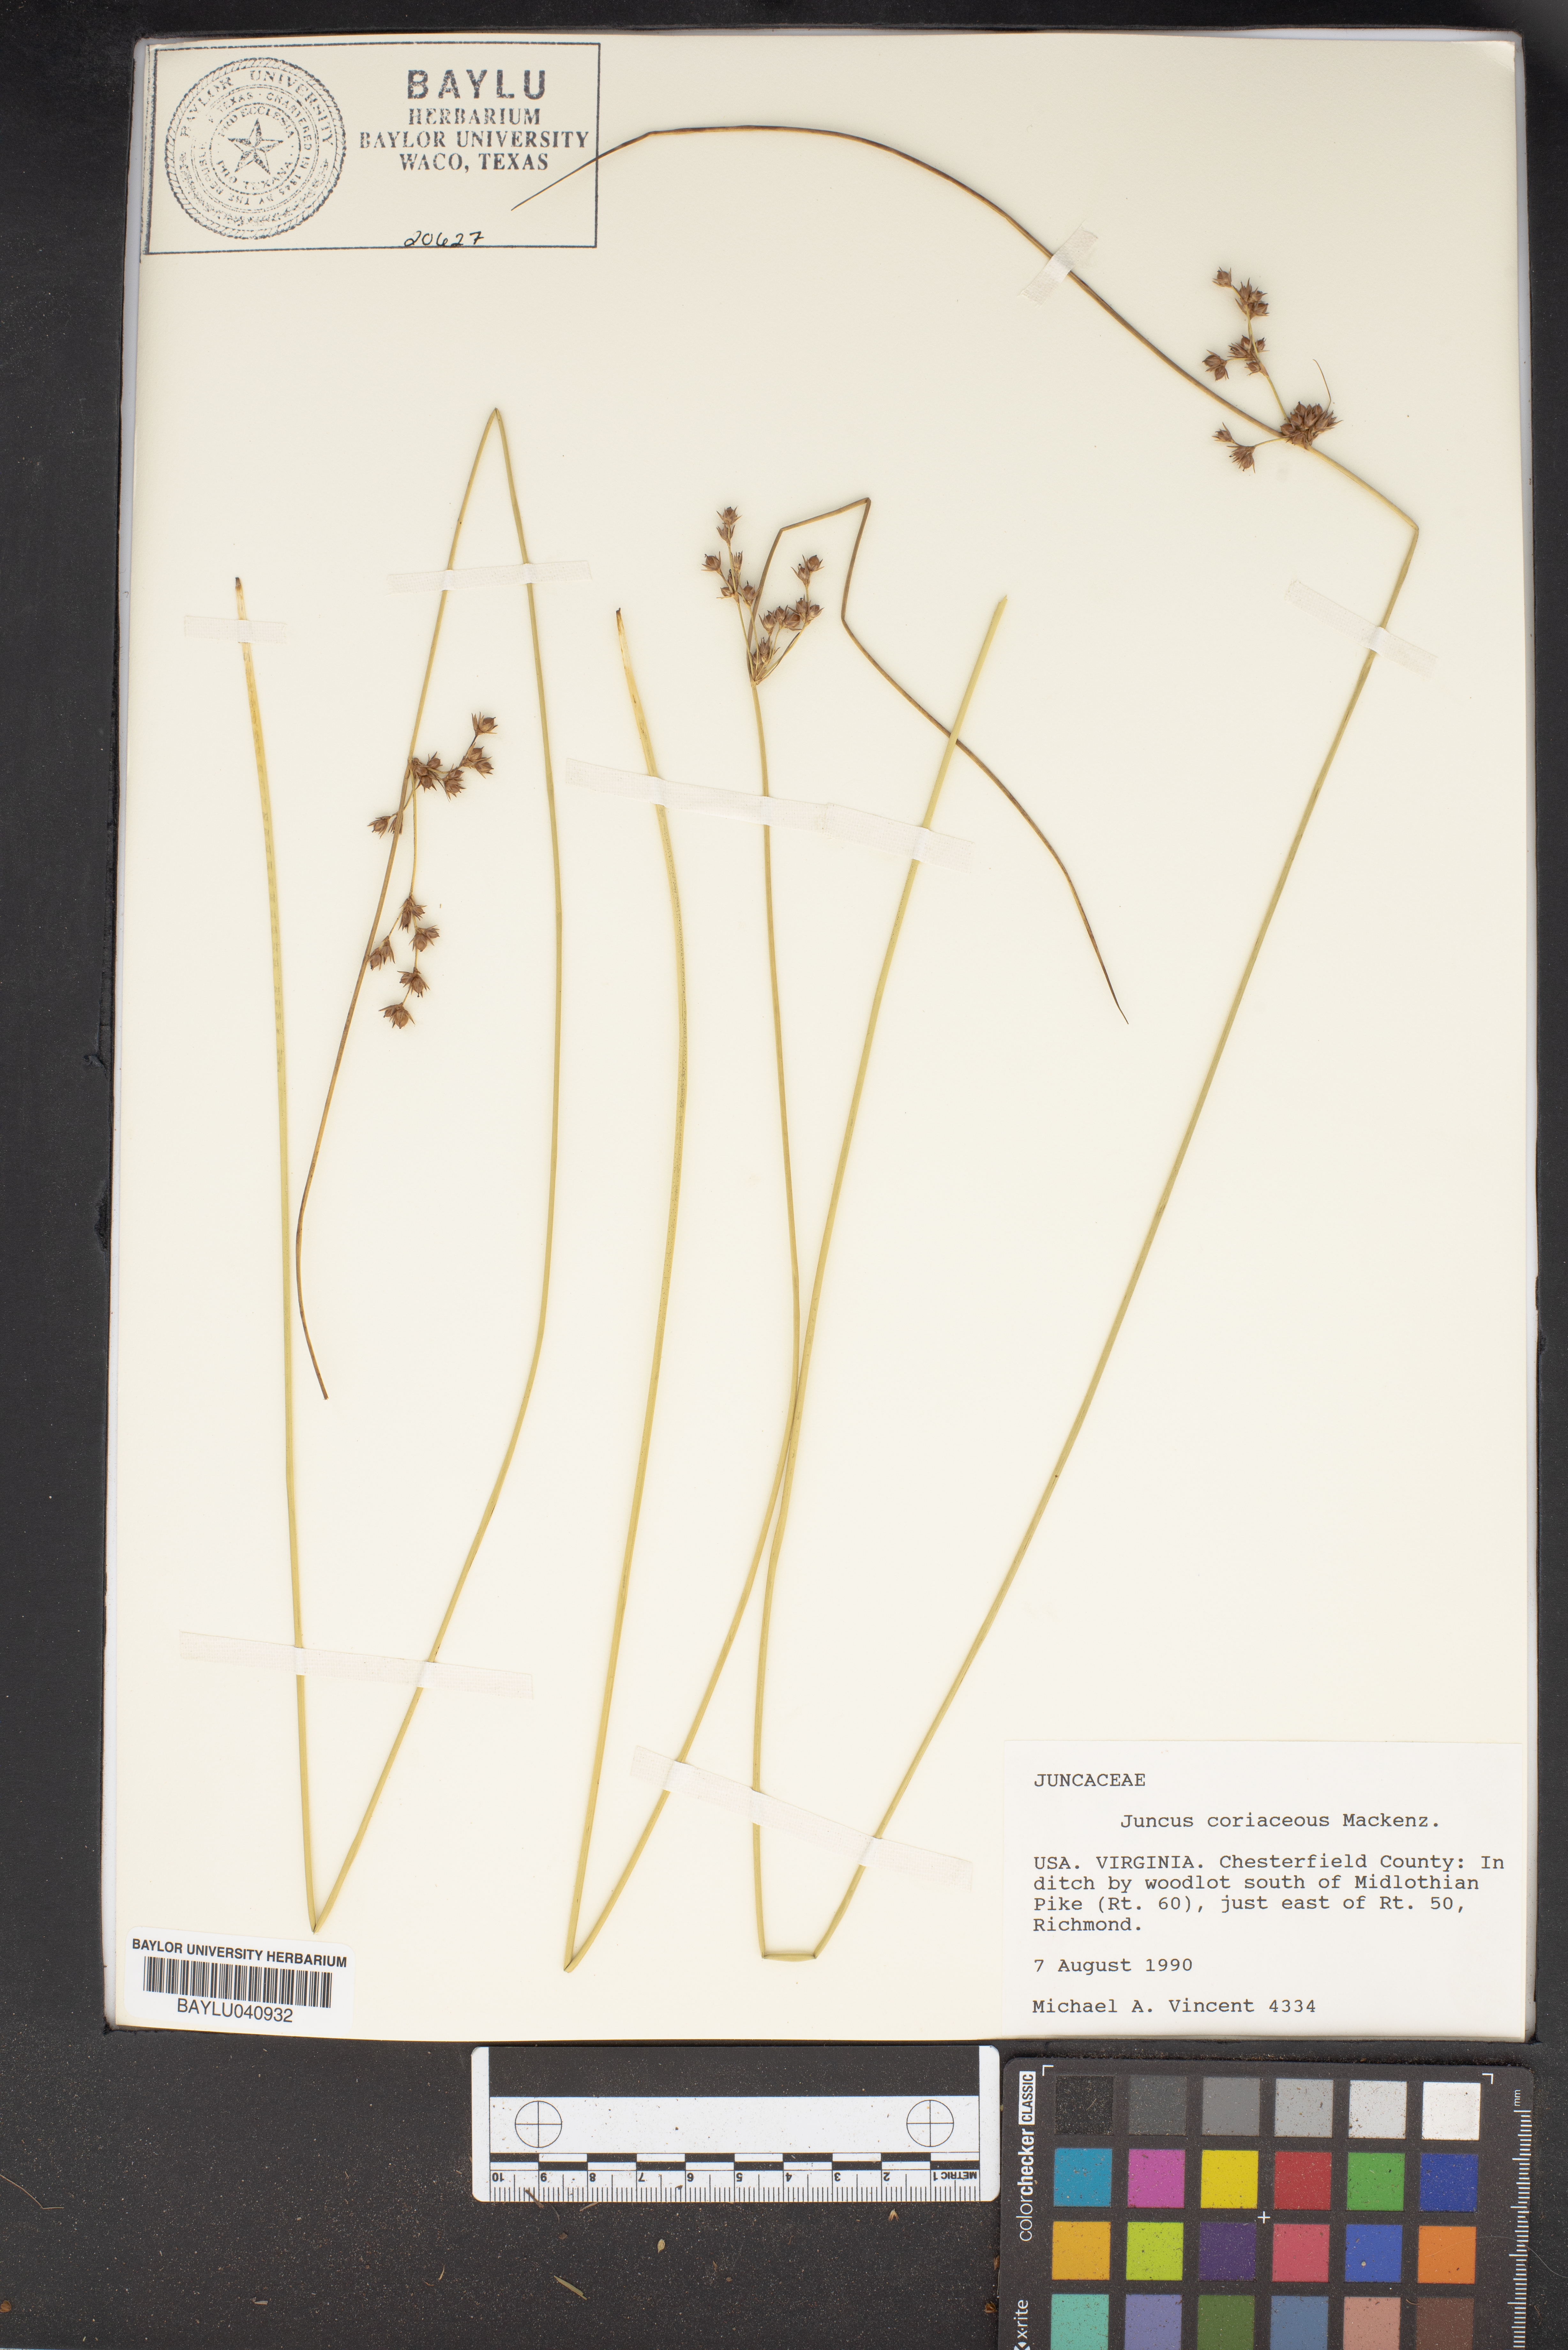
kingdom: Plantae
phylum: Tracheophyta
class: Liliopsida
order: Poales
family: Juncaceae
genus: Juncus
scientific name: Juncus coriaceus
